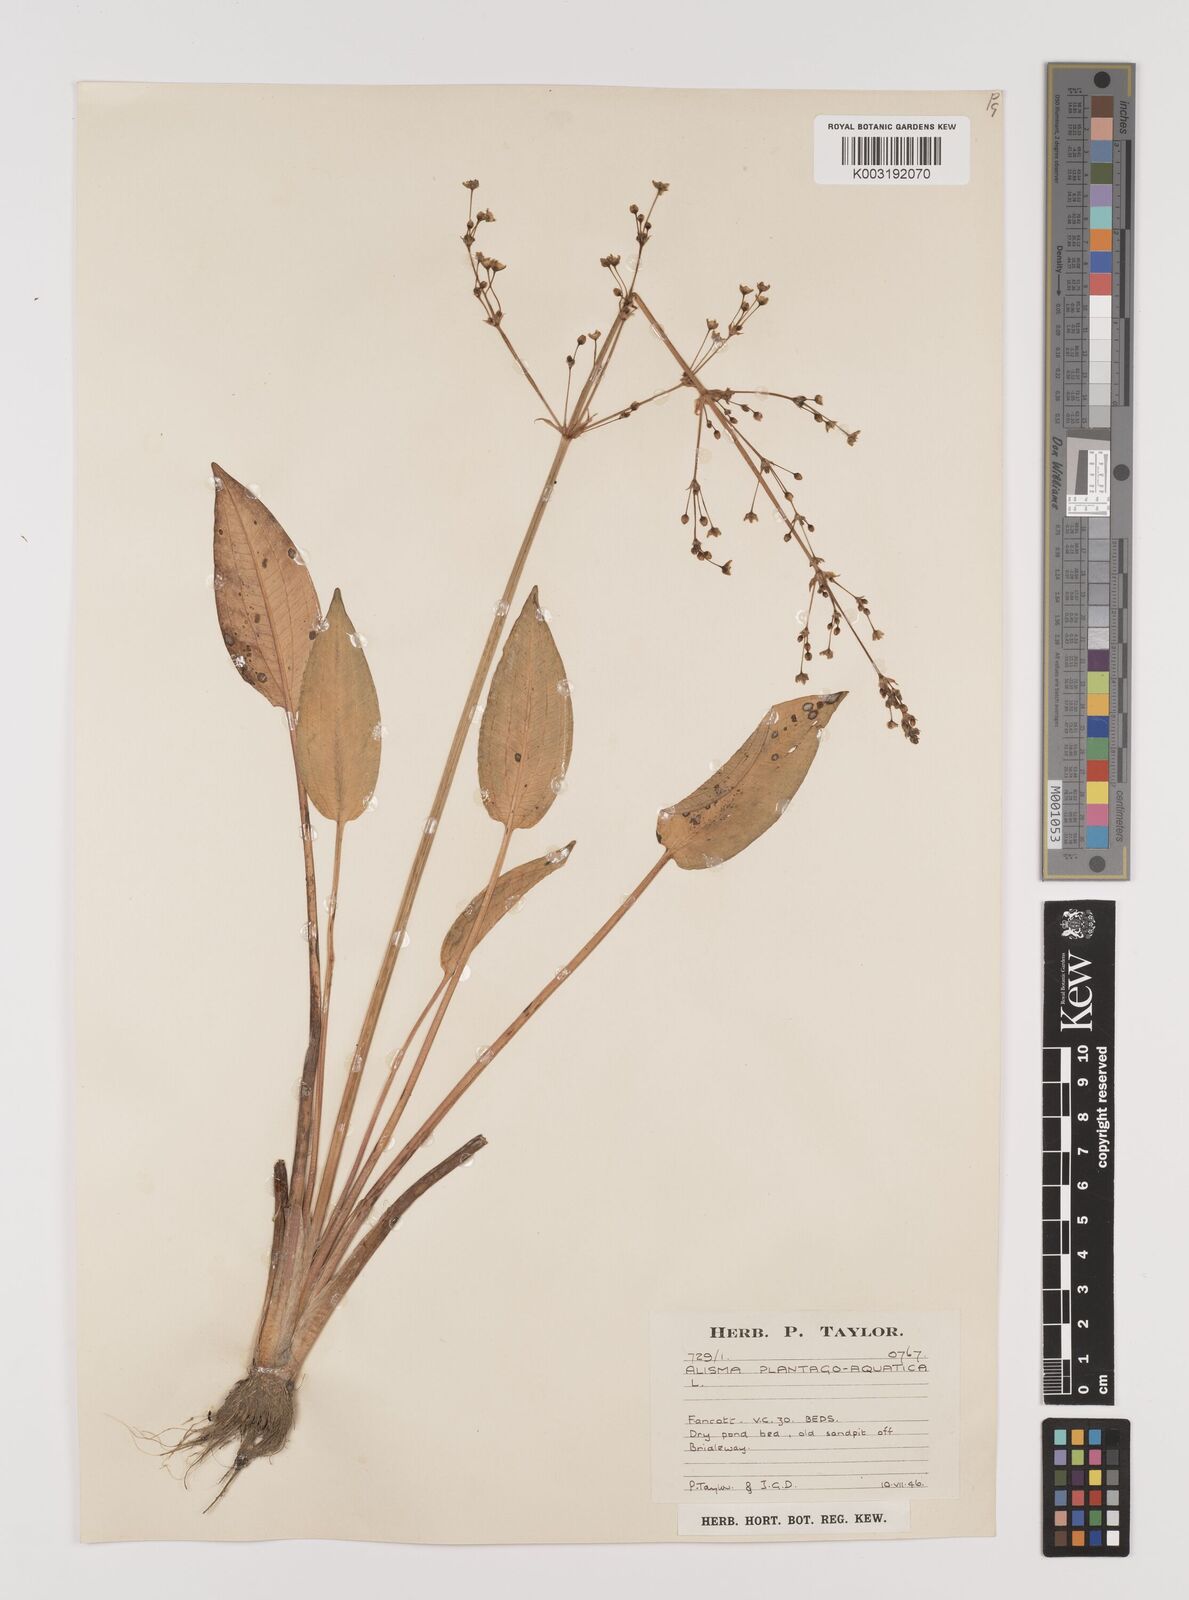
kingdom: Plantae
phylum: Tracheophyta
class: Liliopsida
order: Alismatales
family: Alismataceae
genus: Alisma
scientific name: Alisma plantago-aquatica
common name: Water-plantain
